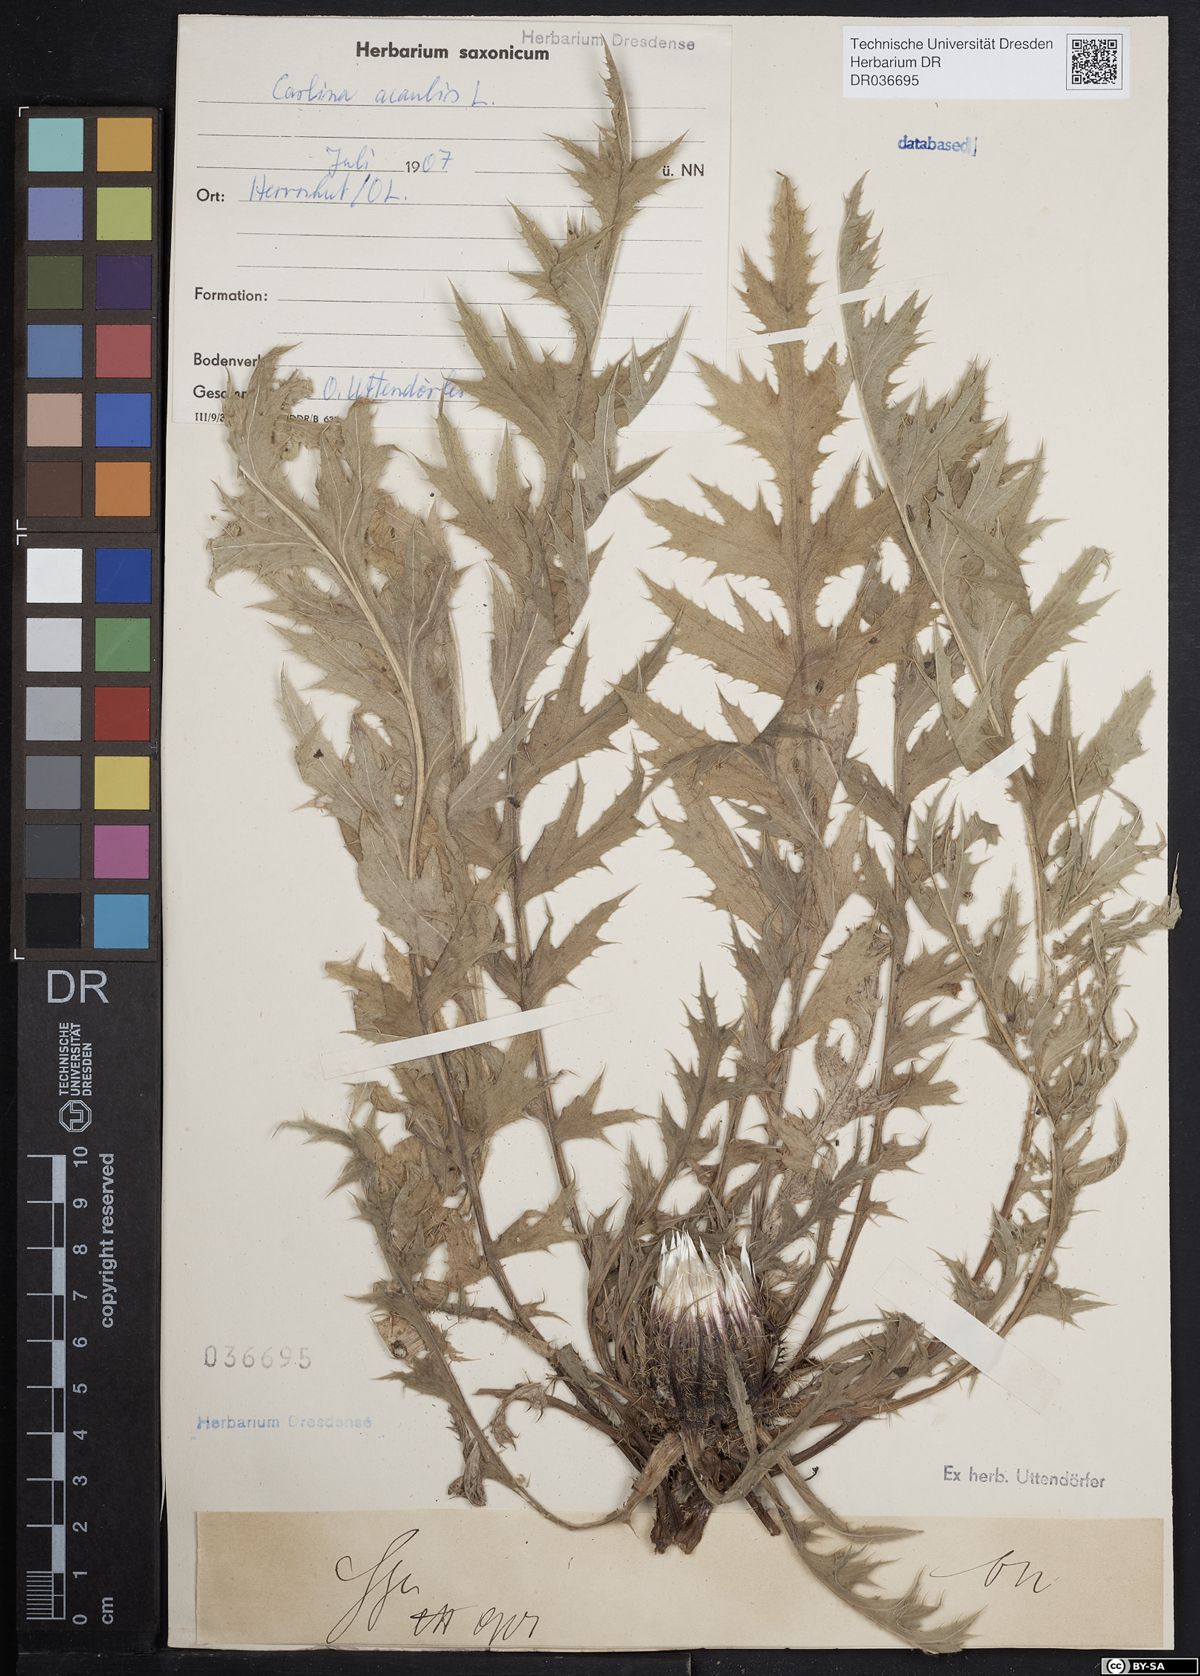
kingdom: Plantae
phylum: Tracheophyta
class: Magnoliopsida
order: Asterales
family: Asteraceae
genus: Carlina
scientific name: Carlina acaulis
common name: Stemless carline thistle
